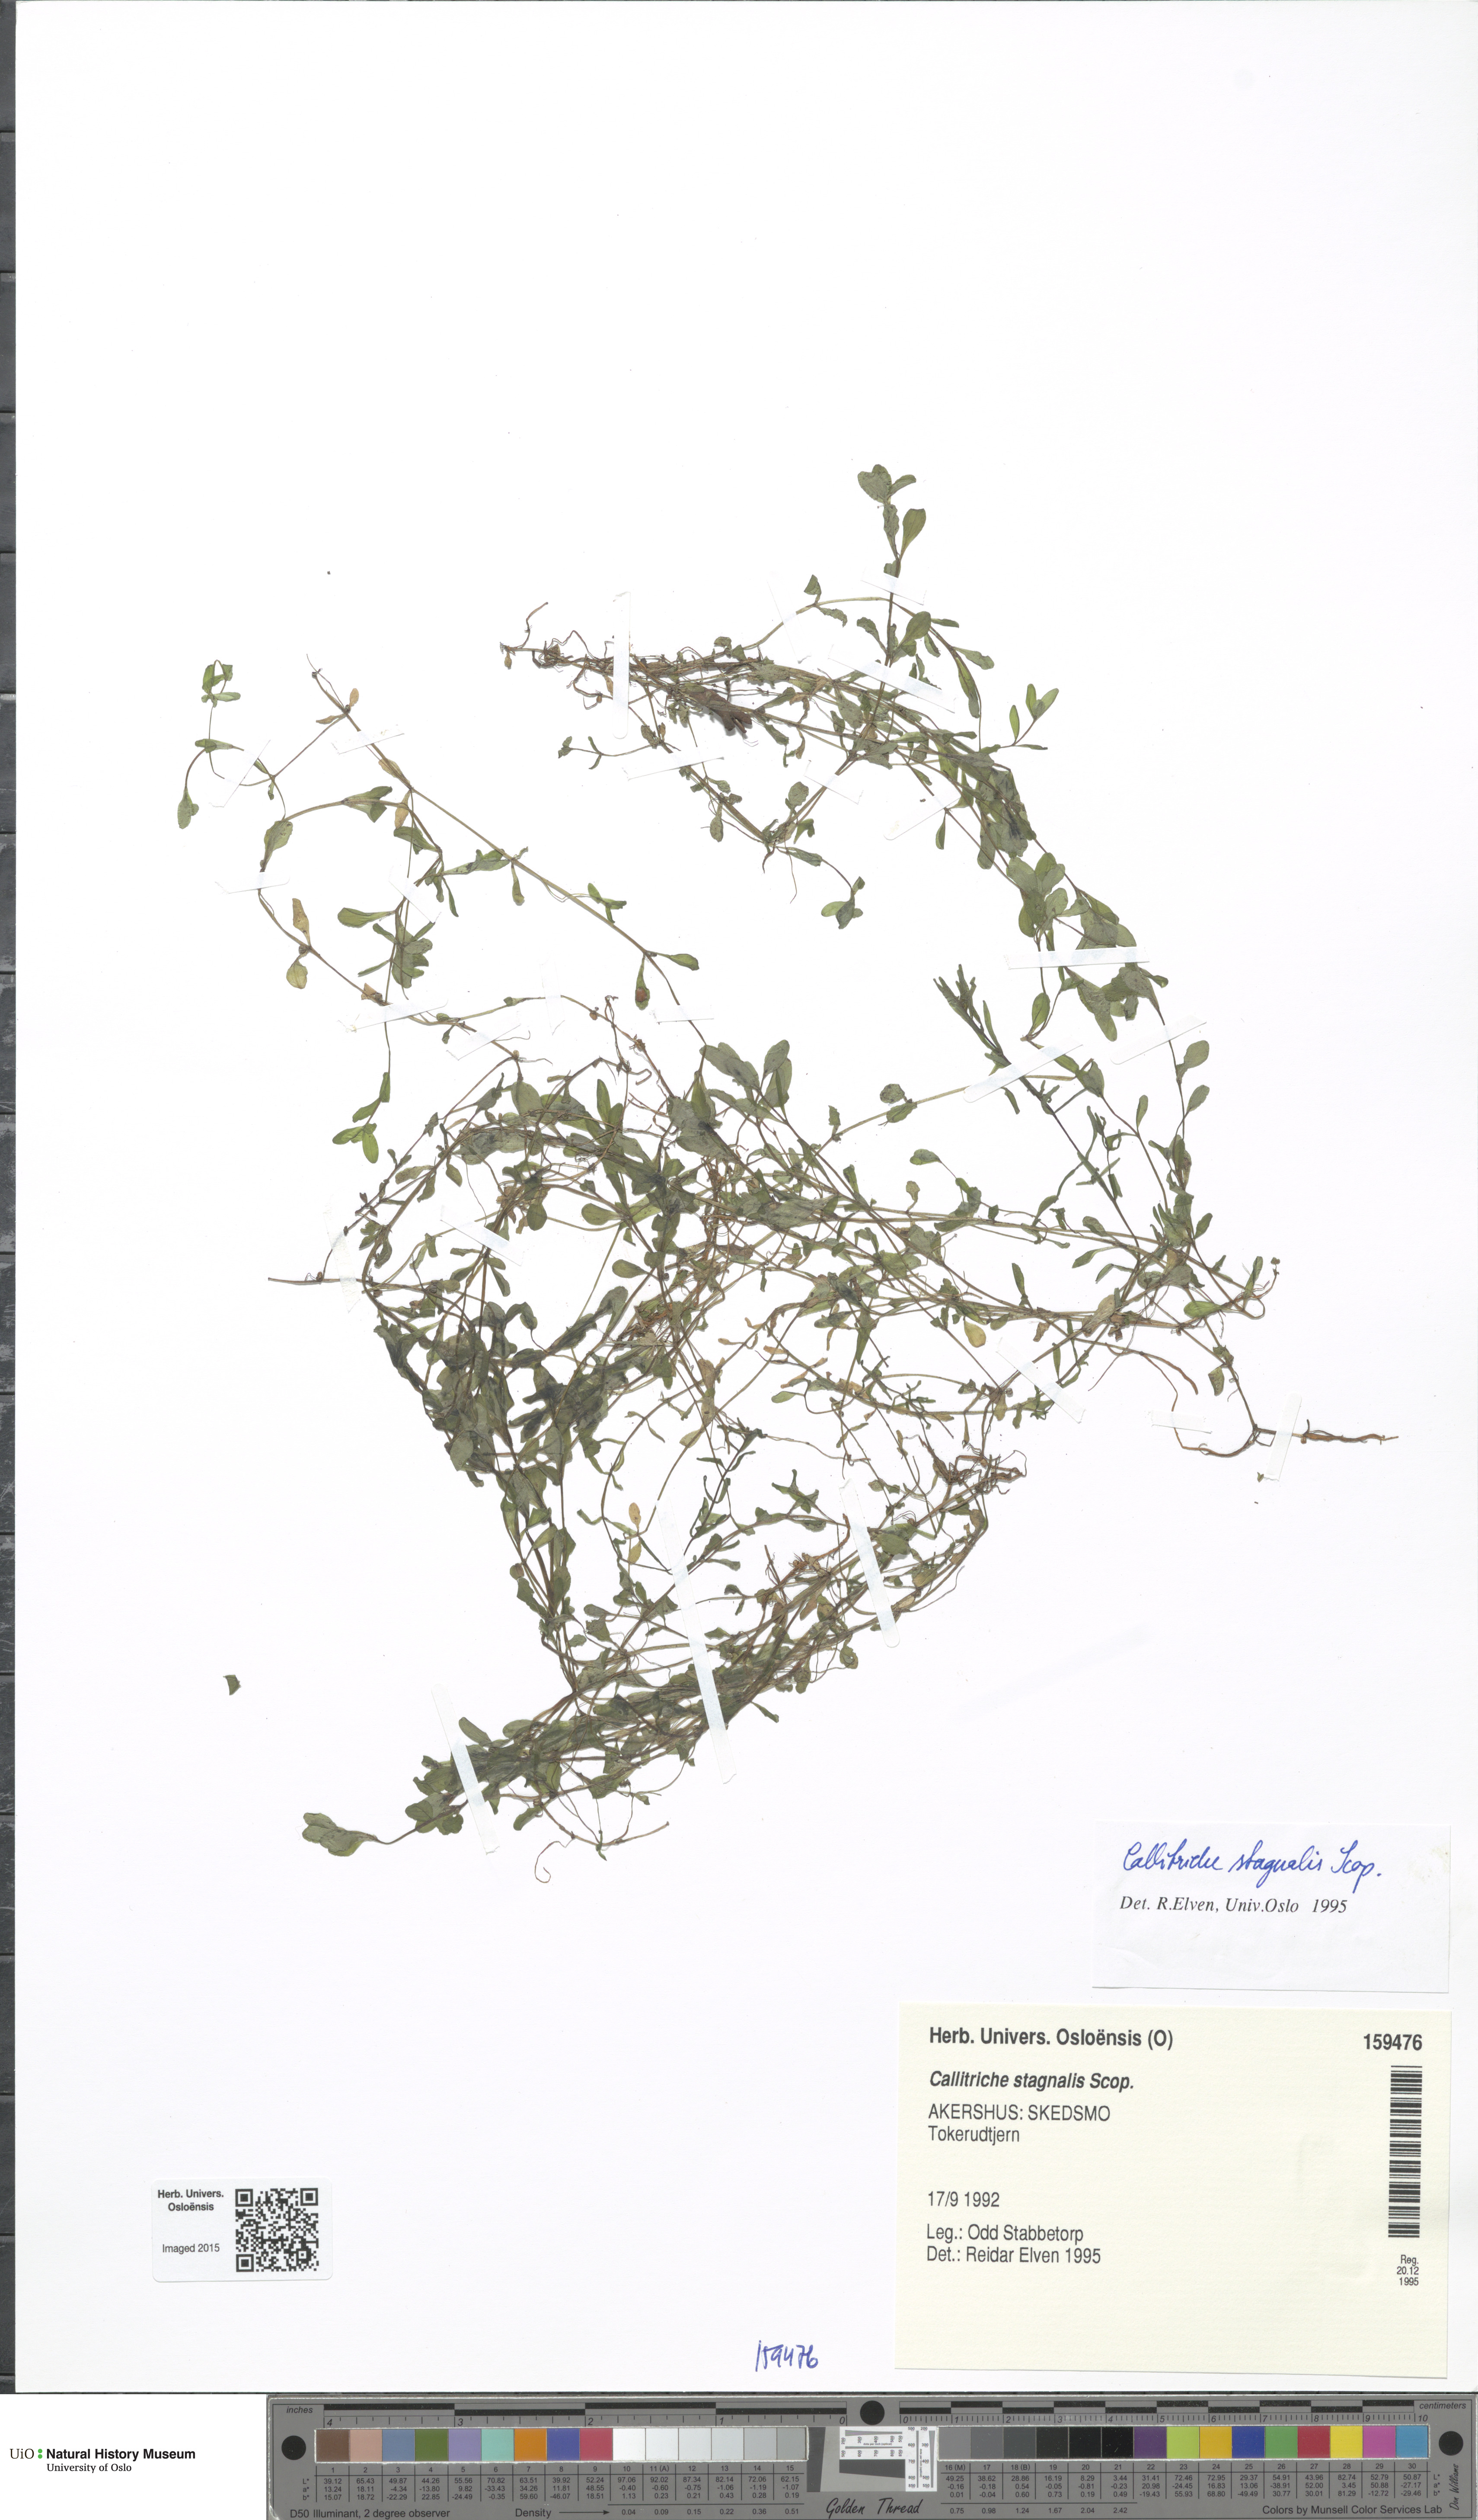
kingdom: Plantae
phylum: Tracheophyta
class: Magnoliopsida
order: Lamiales
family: Plantaginaceae
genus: Callitriche
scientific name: Callitriche stagnalis
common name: Common water-starwort
